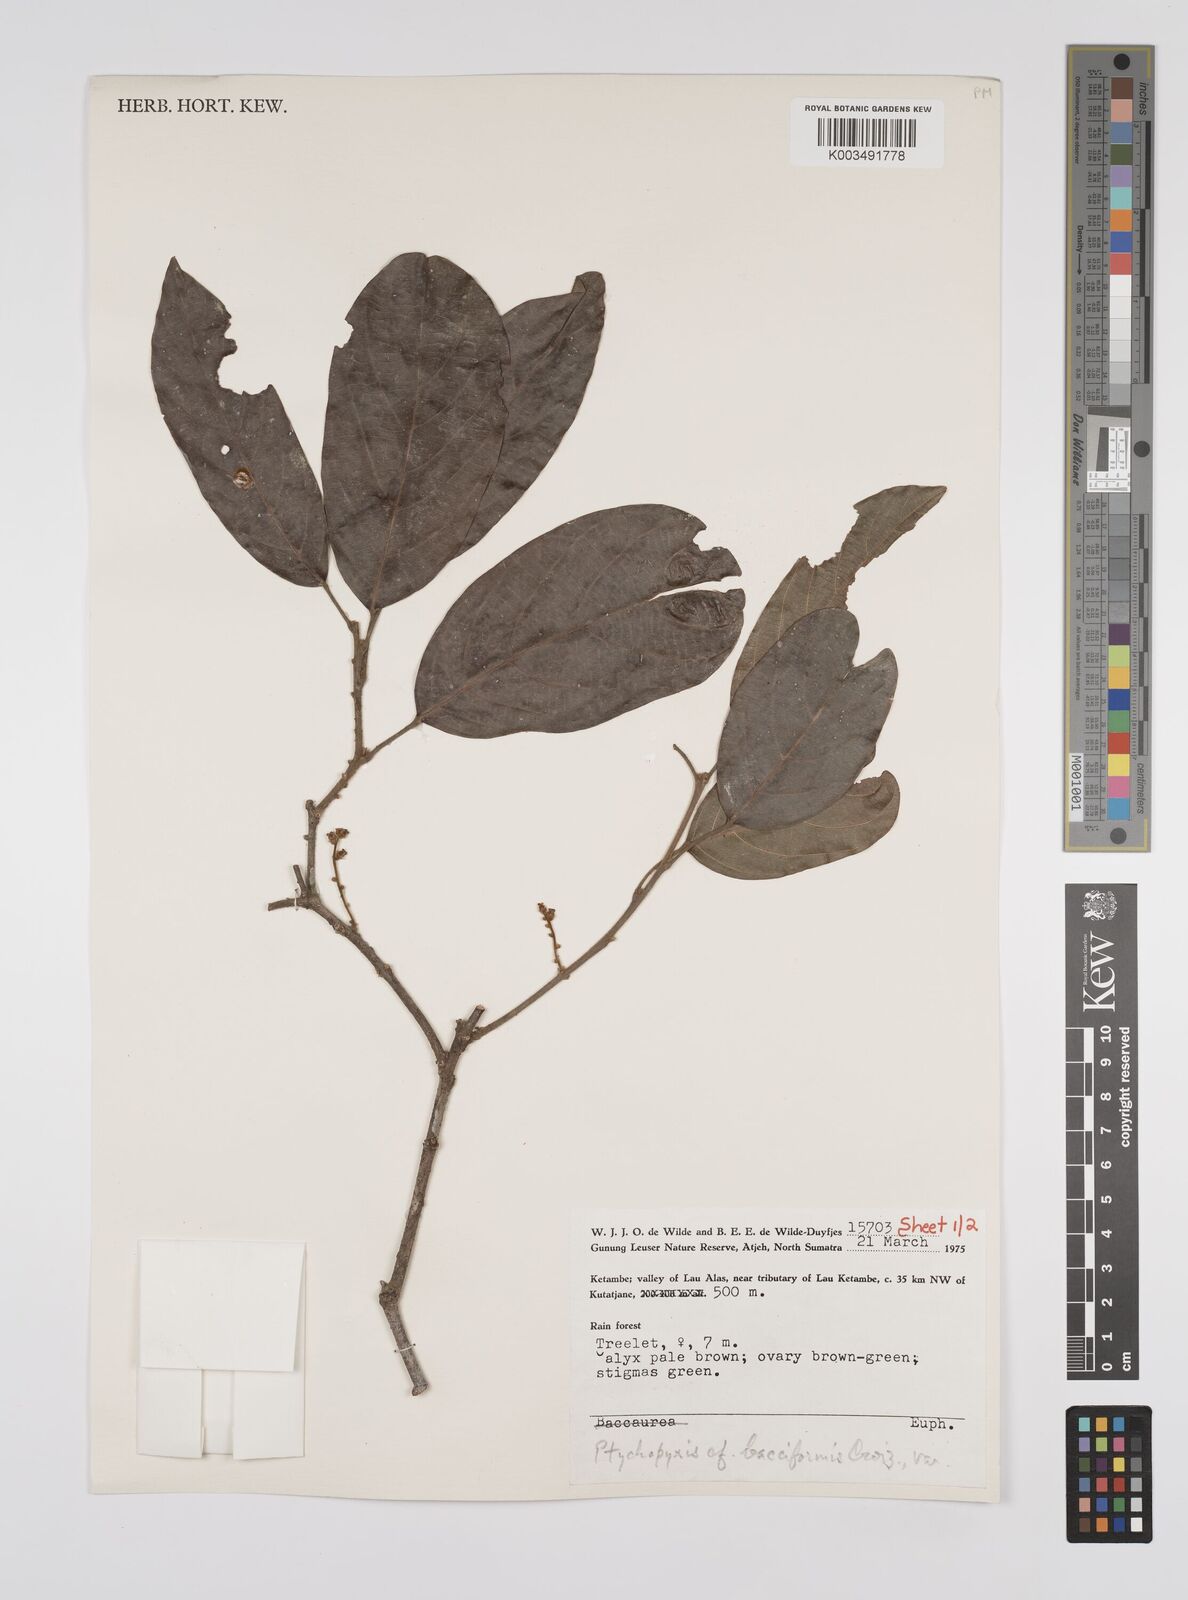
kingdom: Plantae
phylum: Tracheophyta
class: Magnoliopsida
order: Malpighiales
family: Euphorbiaceae
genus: Ptychopyxis
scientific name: Ptychopyxis bacciformis
